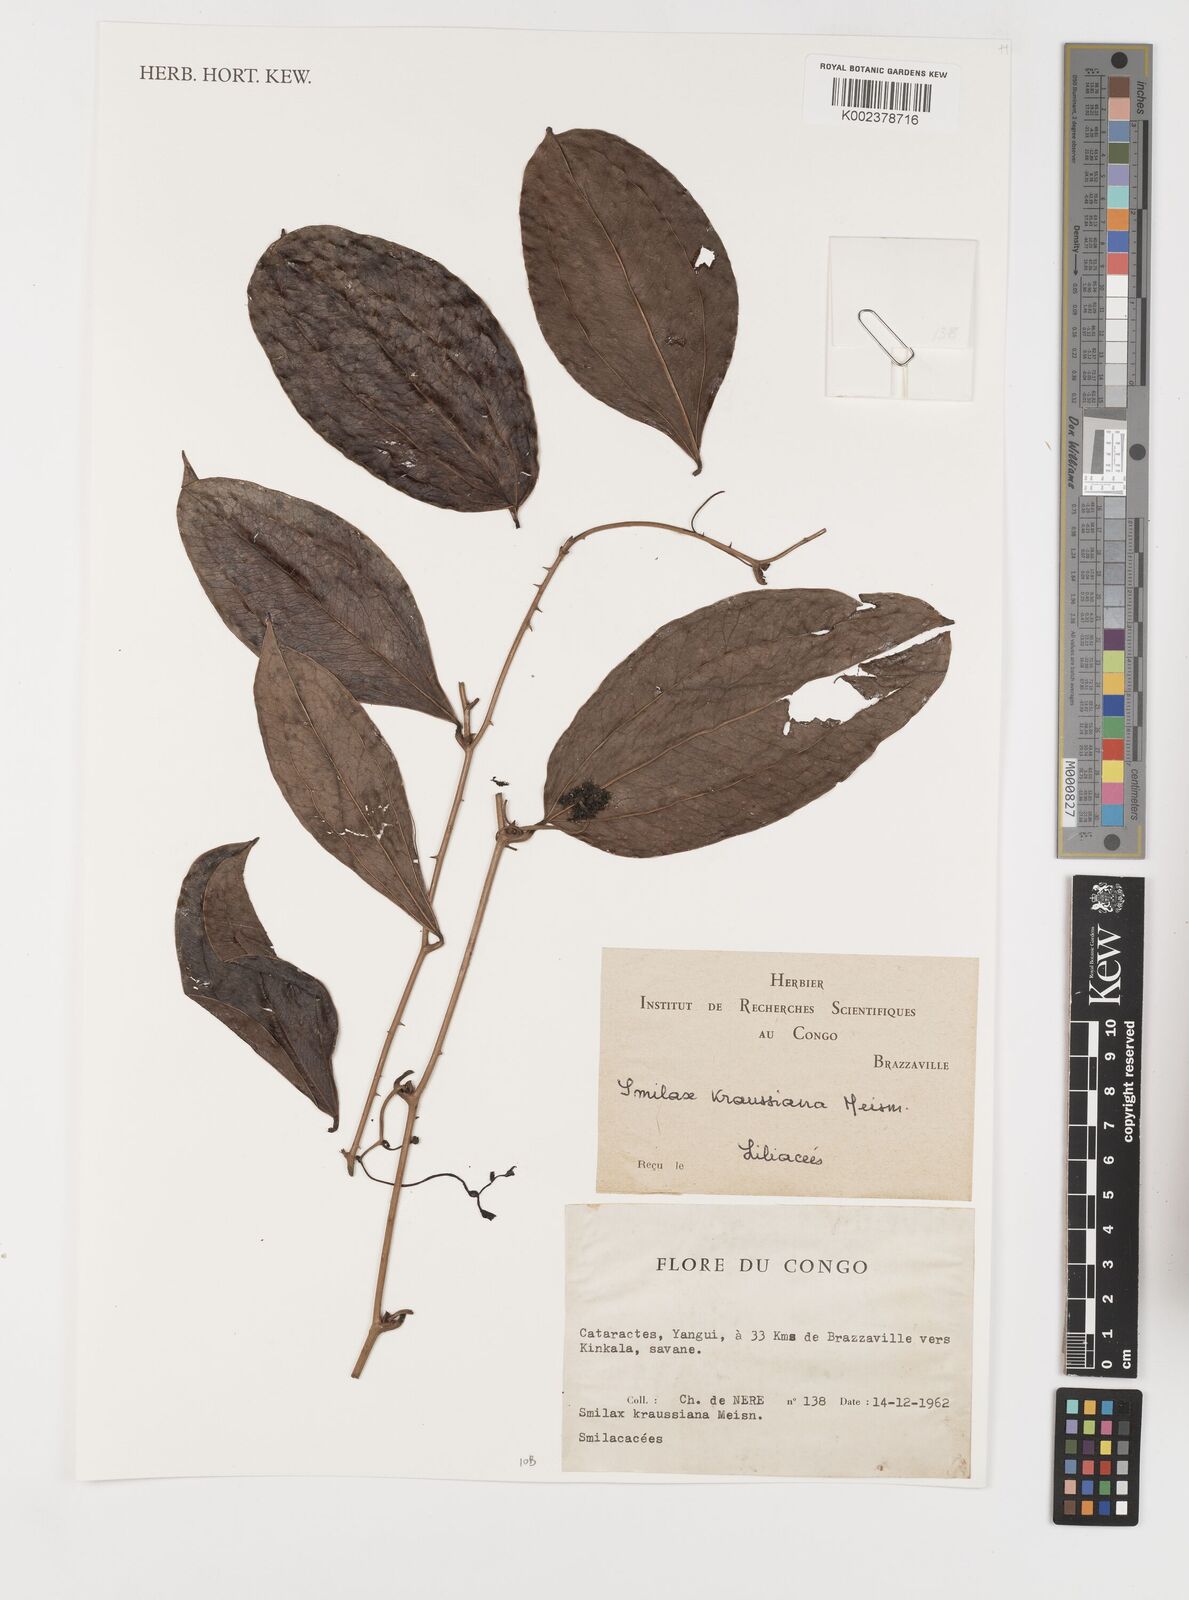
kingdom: Plantae
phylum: Tracheophyta
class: Liliopsida
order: Liliales
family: Smilacaceae
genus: Smilax
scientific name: Smilax anceps
